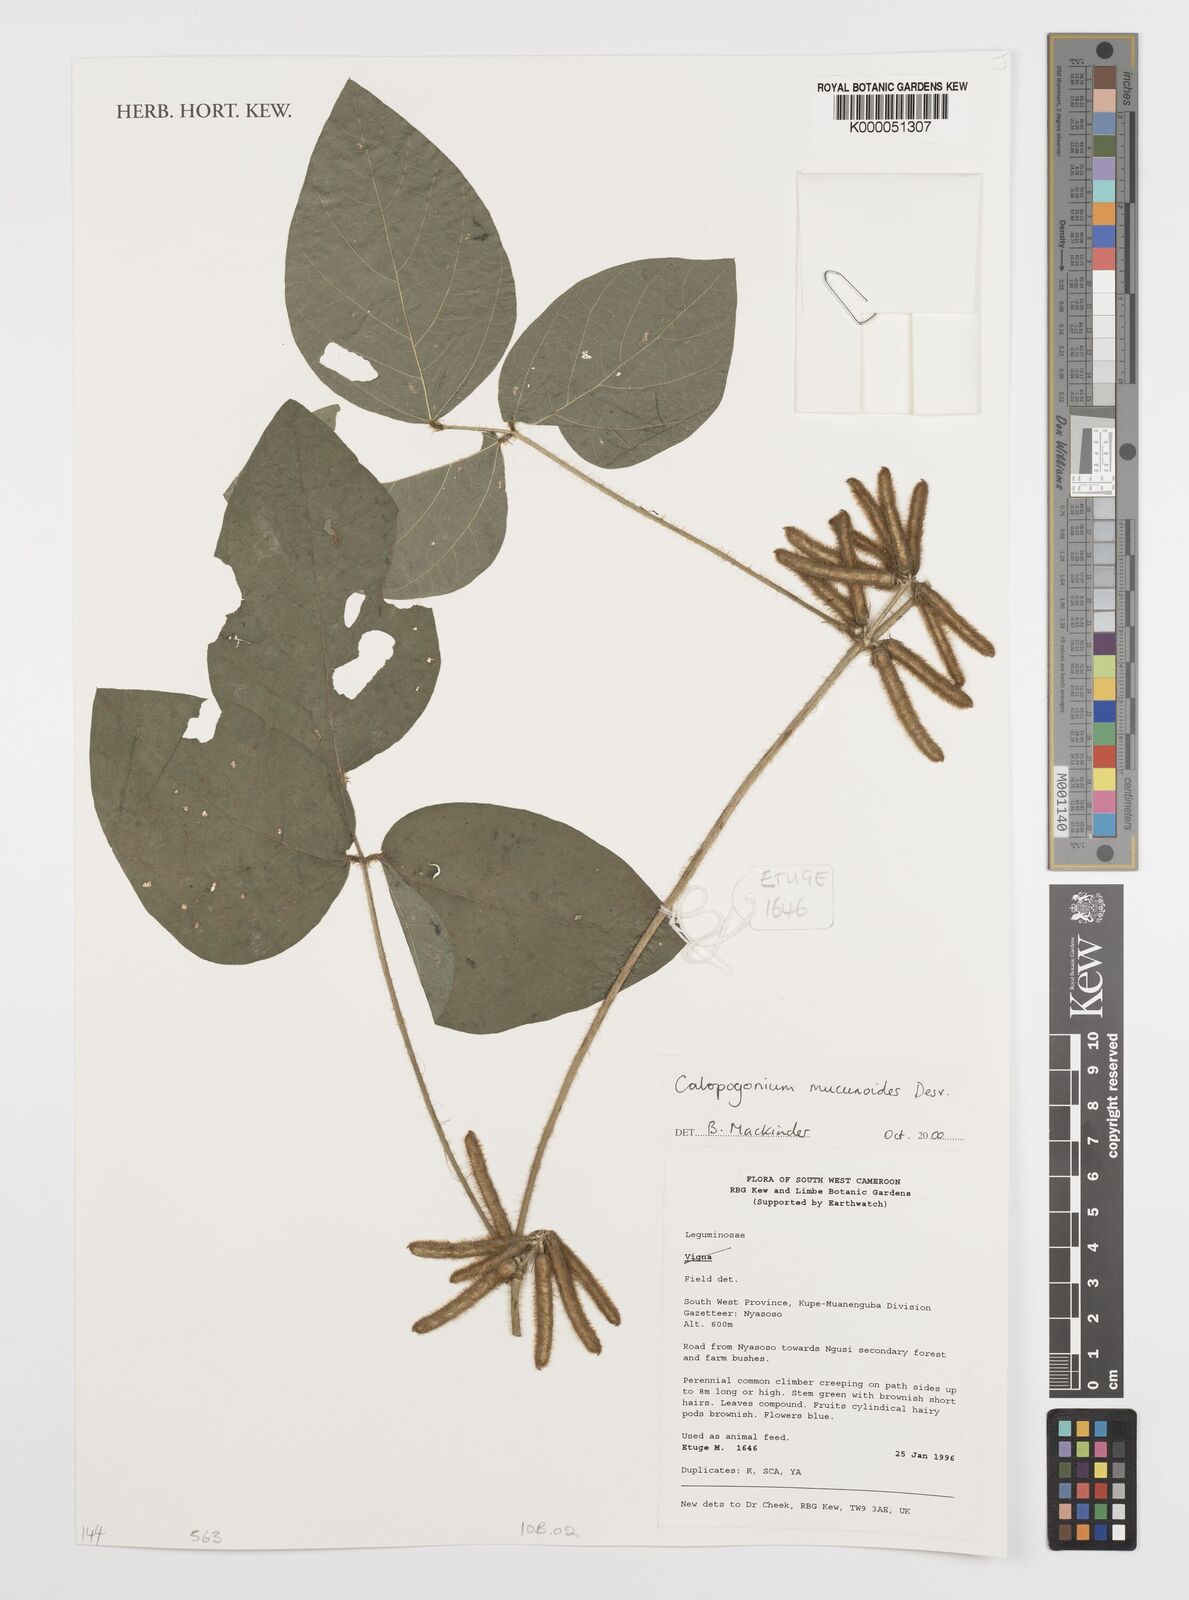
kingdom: Plantae
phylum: Tracheophyta
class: Magnoliopsida
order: Fabales
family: Fabaceae
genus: Calopogonium
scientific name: Calopogonium mucunoides
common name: Calopo
